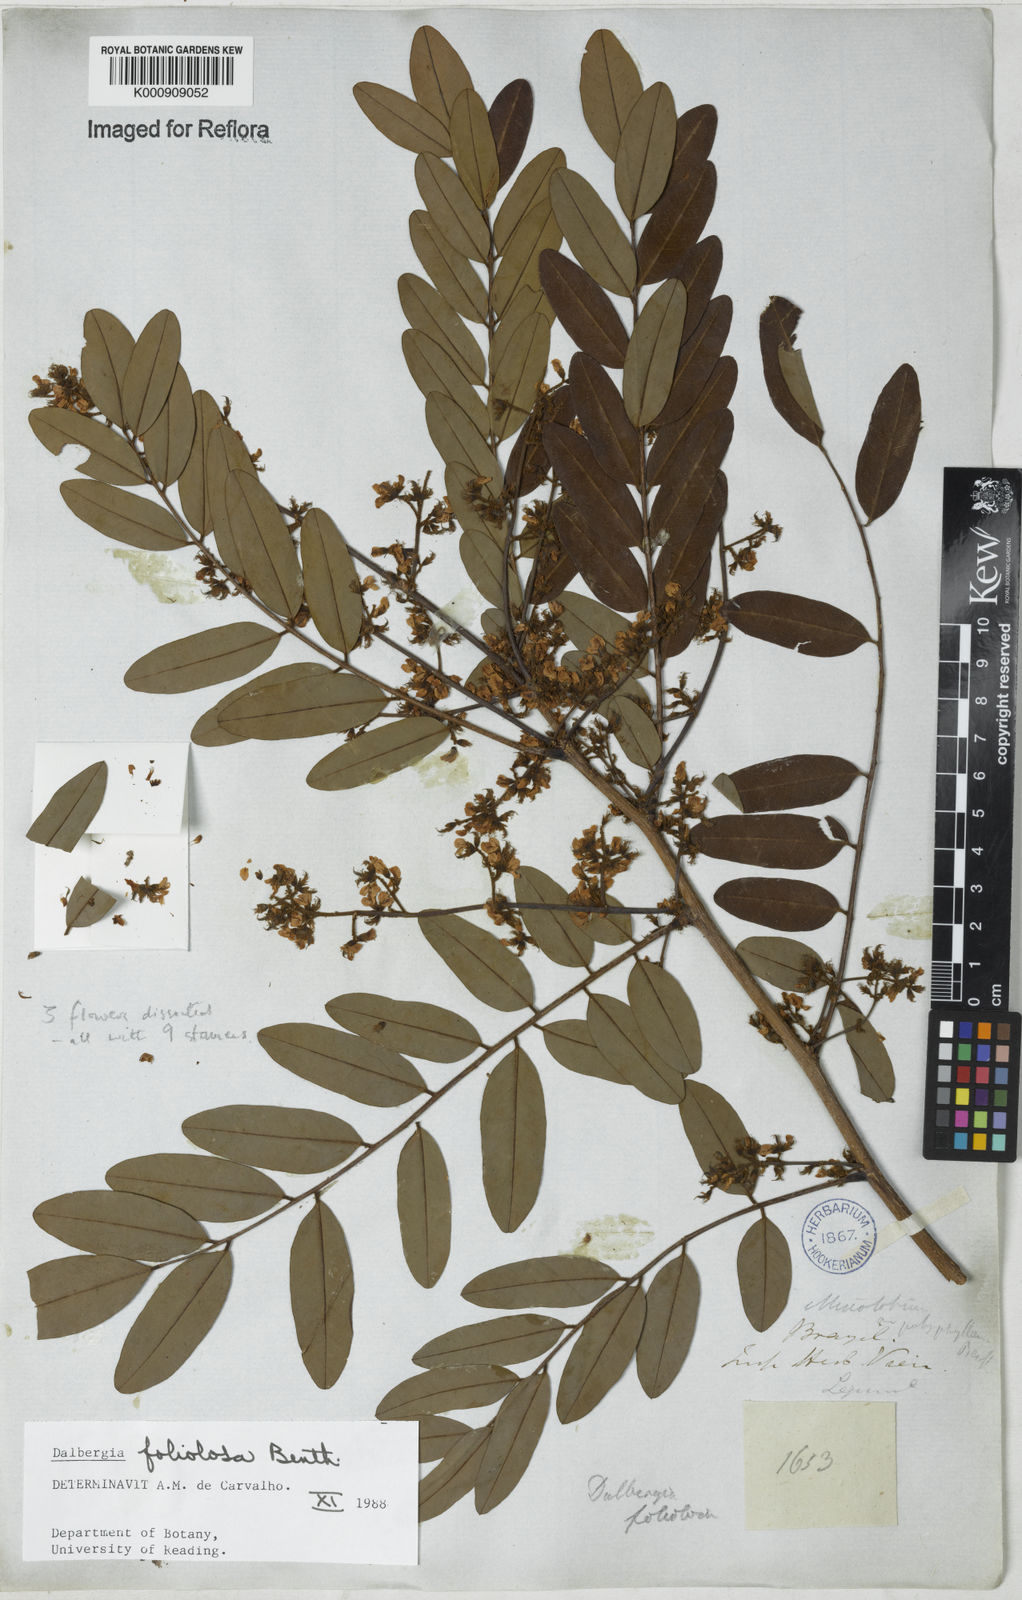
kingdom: Plantae
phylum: Tracheophyta
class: Magnoliopsida
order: Fabales
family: Fabaceae
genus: Dalbergia
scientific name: Dalbergia foliolosa
